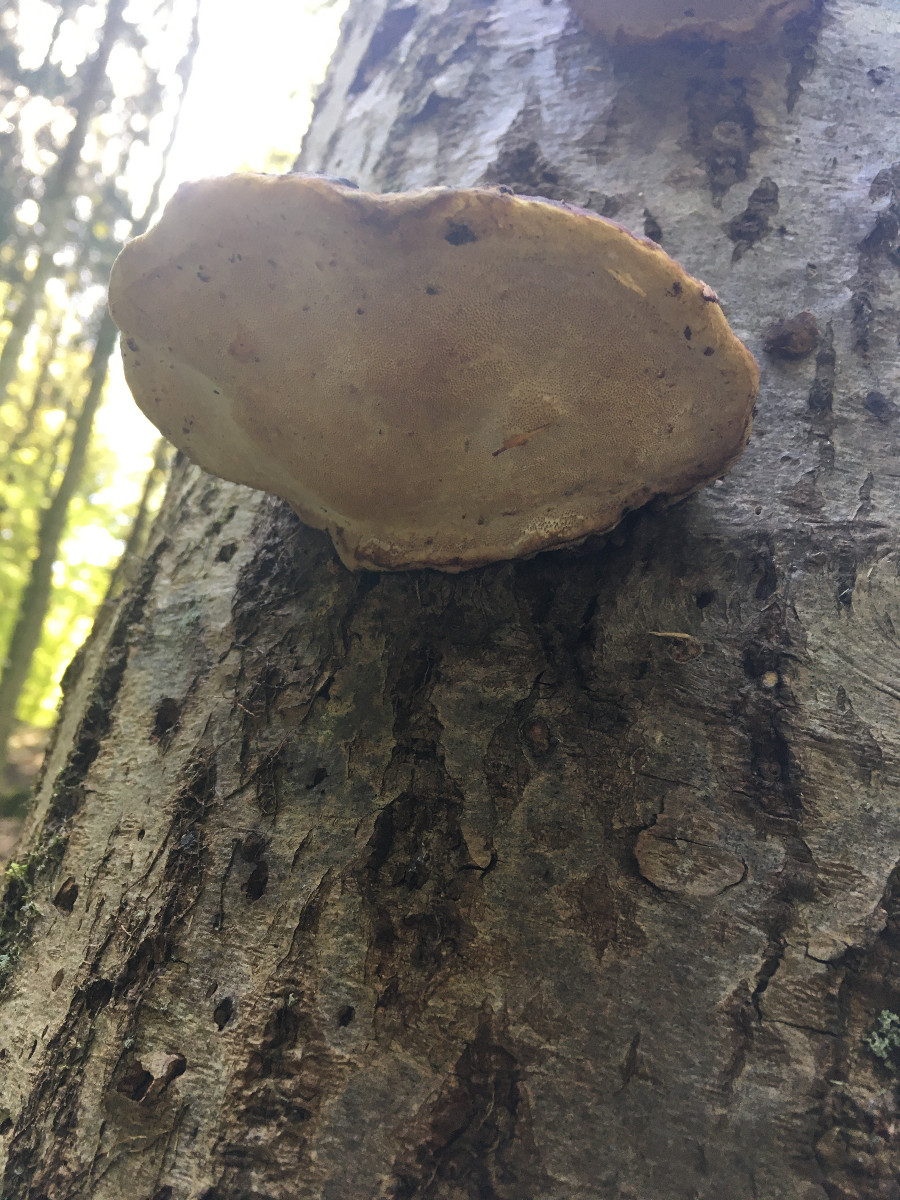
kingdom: Fungi
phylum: Basidiomycota
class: Agaricomycetes
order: Polyporales
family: Fomitopsidaceae
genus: Fomitopsis
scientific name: Fomitopsis pinicola
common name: randbæltet hovporesvamp
